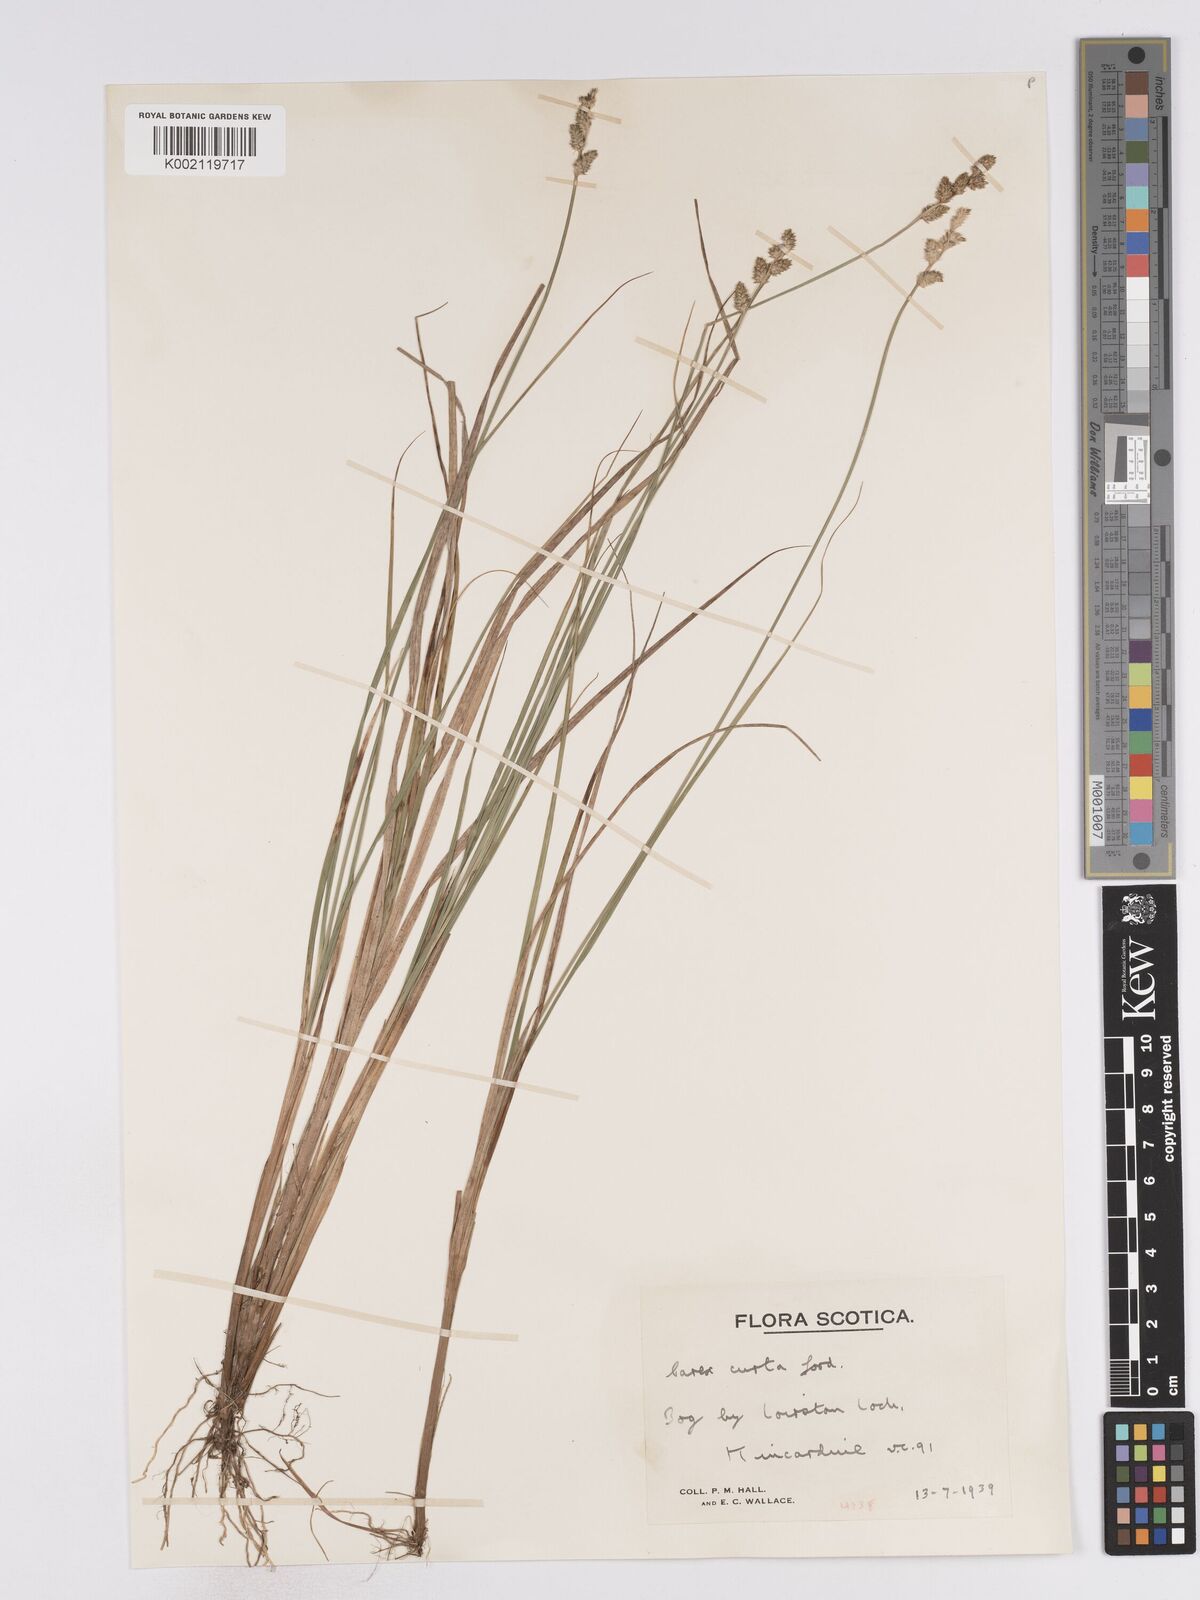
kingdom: Plantae
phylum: Tracheophyta
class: Liliopsida
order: Poales
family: Cyperaceae
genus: Carex
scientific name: Carex curta
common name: White sedge
